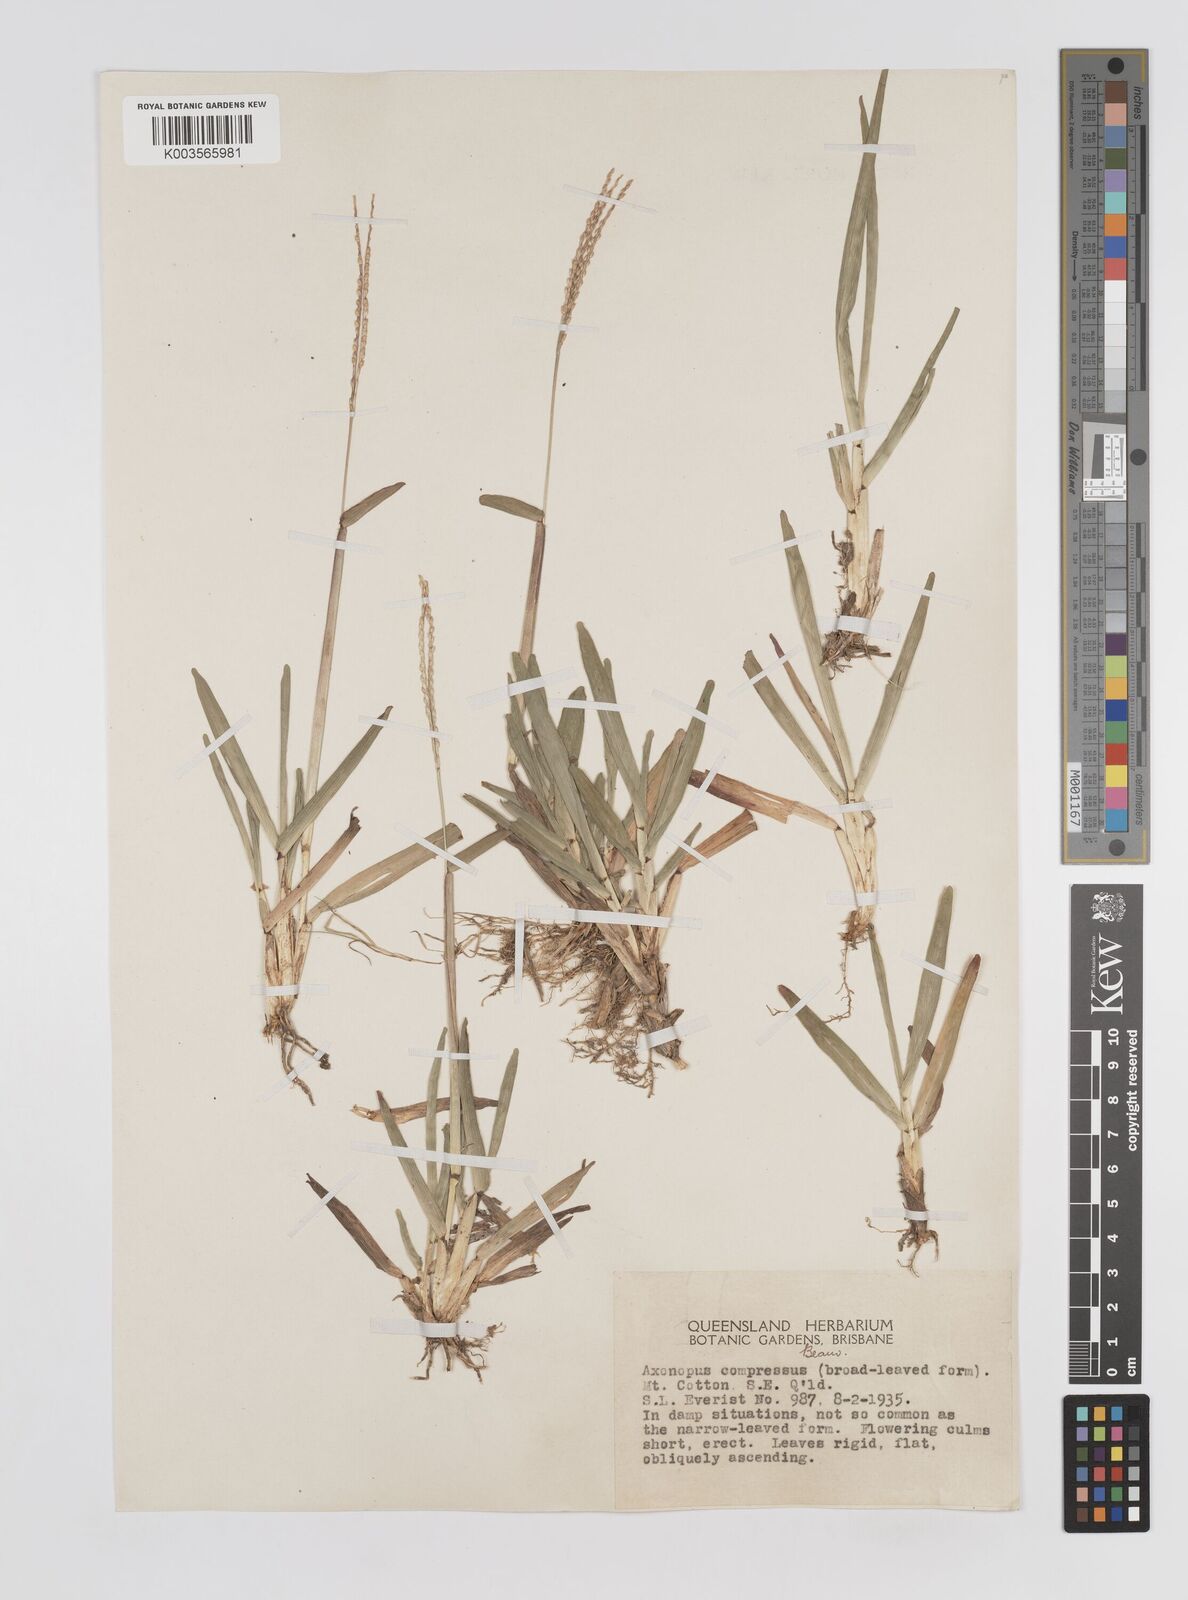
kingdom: Plantae
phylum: Tracheophyta
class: Liliopsida
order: Poales
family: Poaceae
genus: Axonopus
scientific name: Axonopus compressus
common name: American carpet grass
